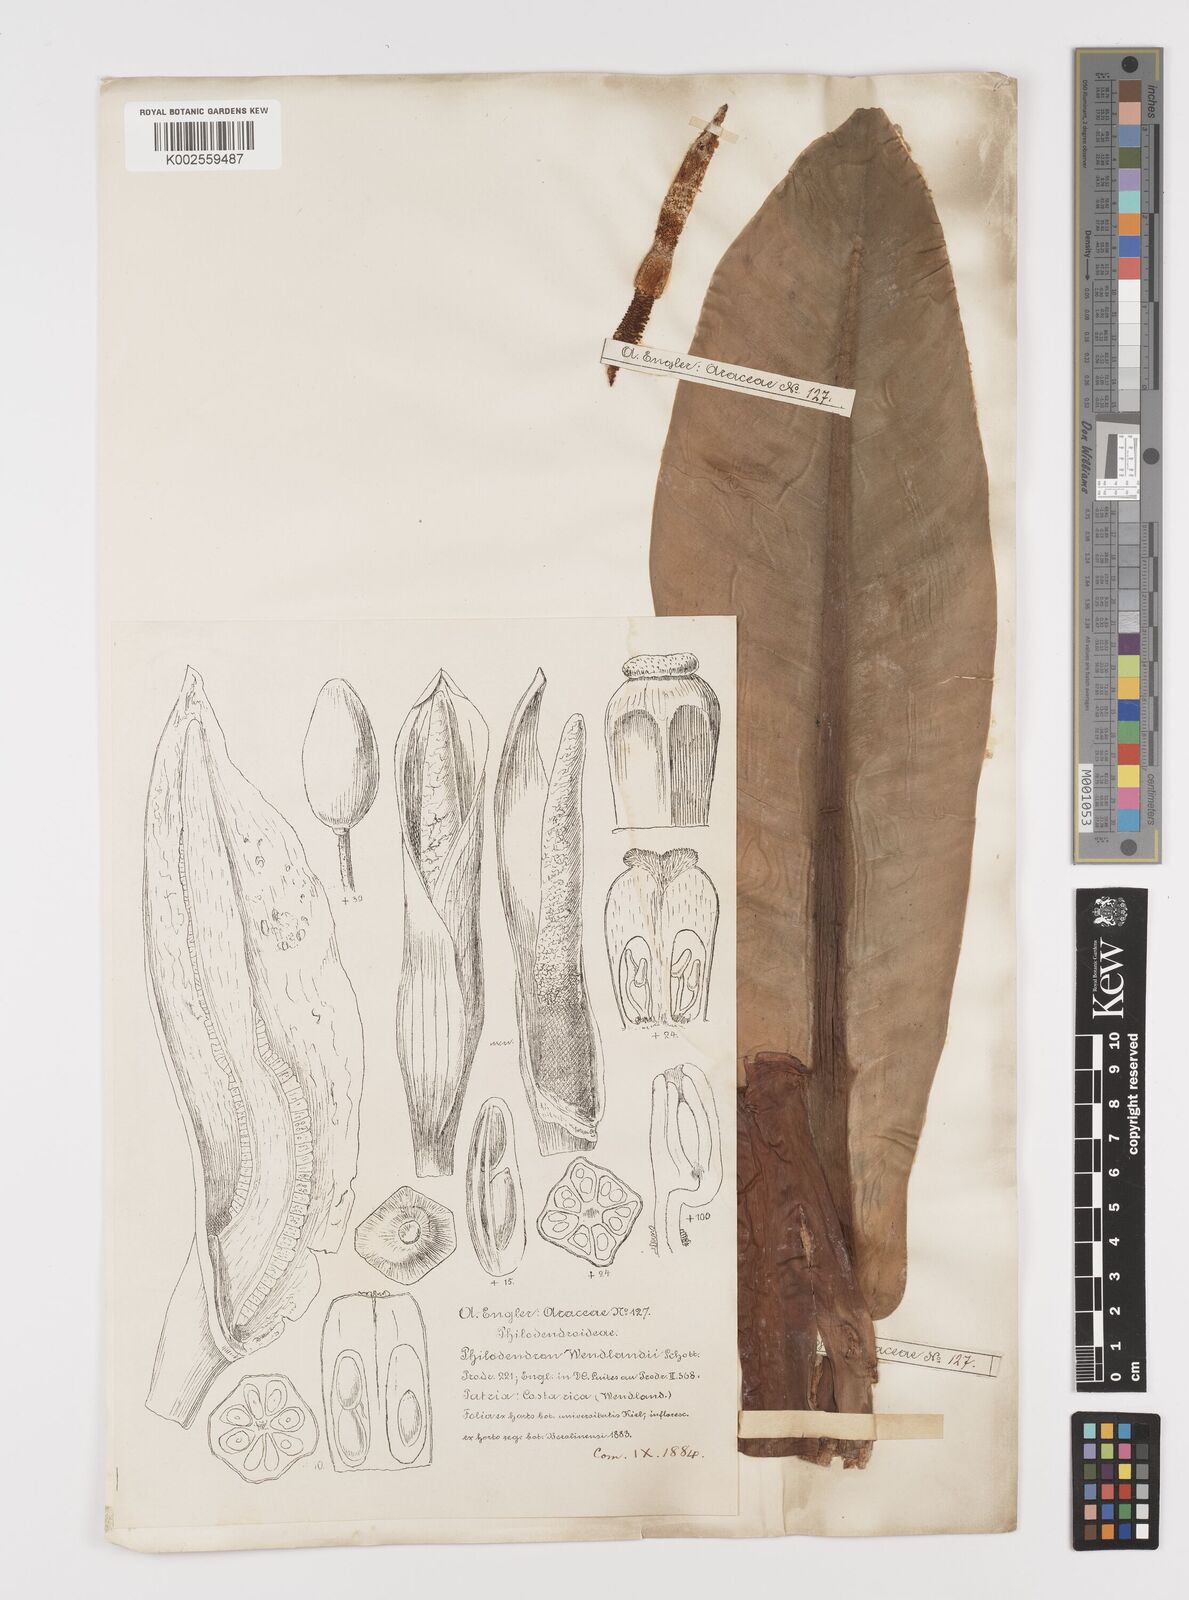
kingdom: Plantae
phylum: Tracheophyta
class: Liliopsida
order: Alismatales
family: Araceae
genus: Philodendron
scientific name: Philodendron wendlandii
